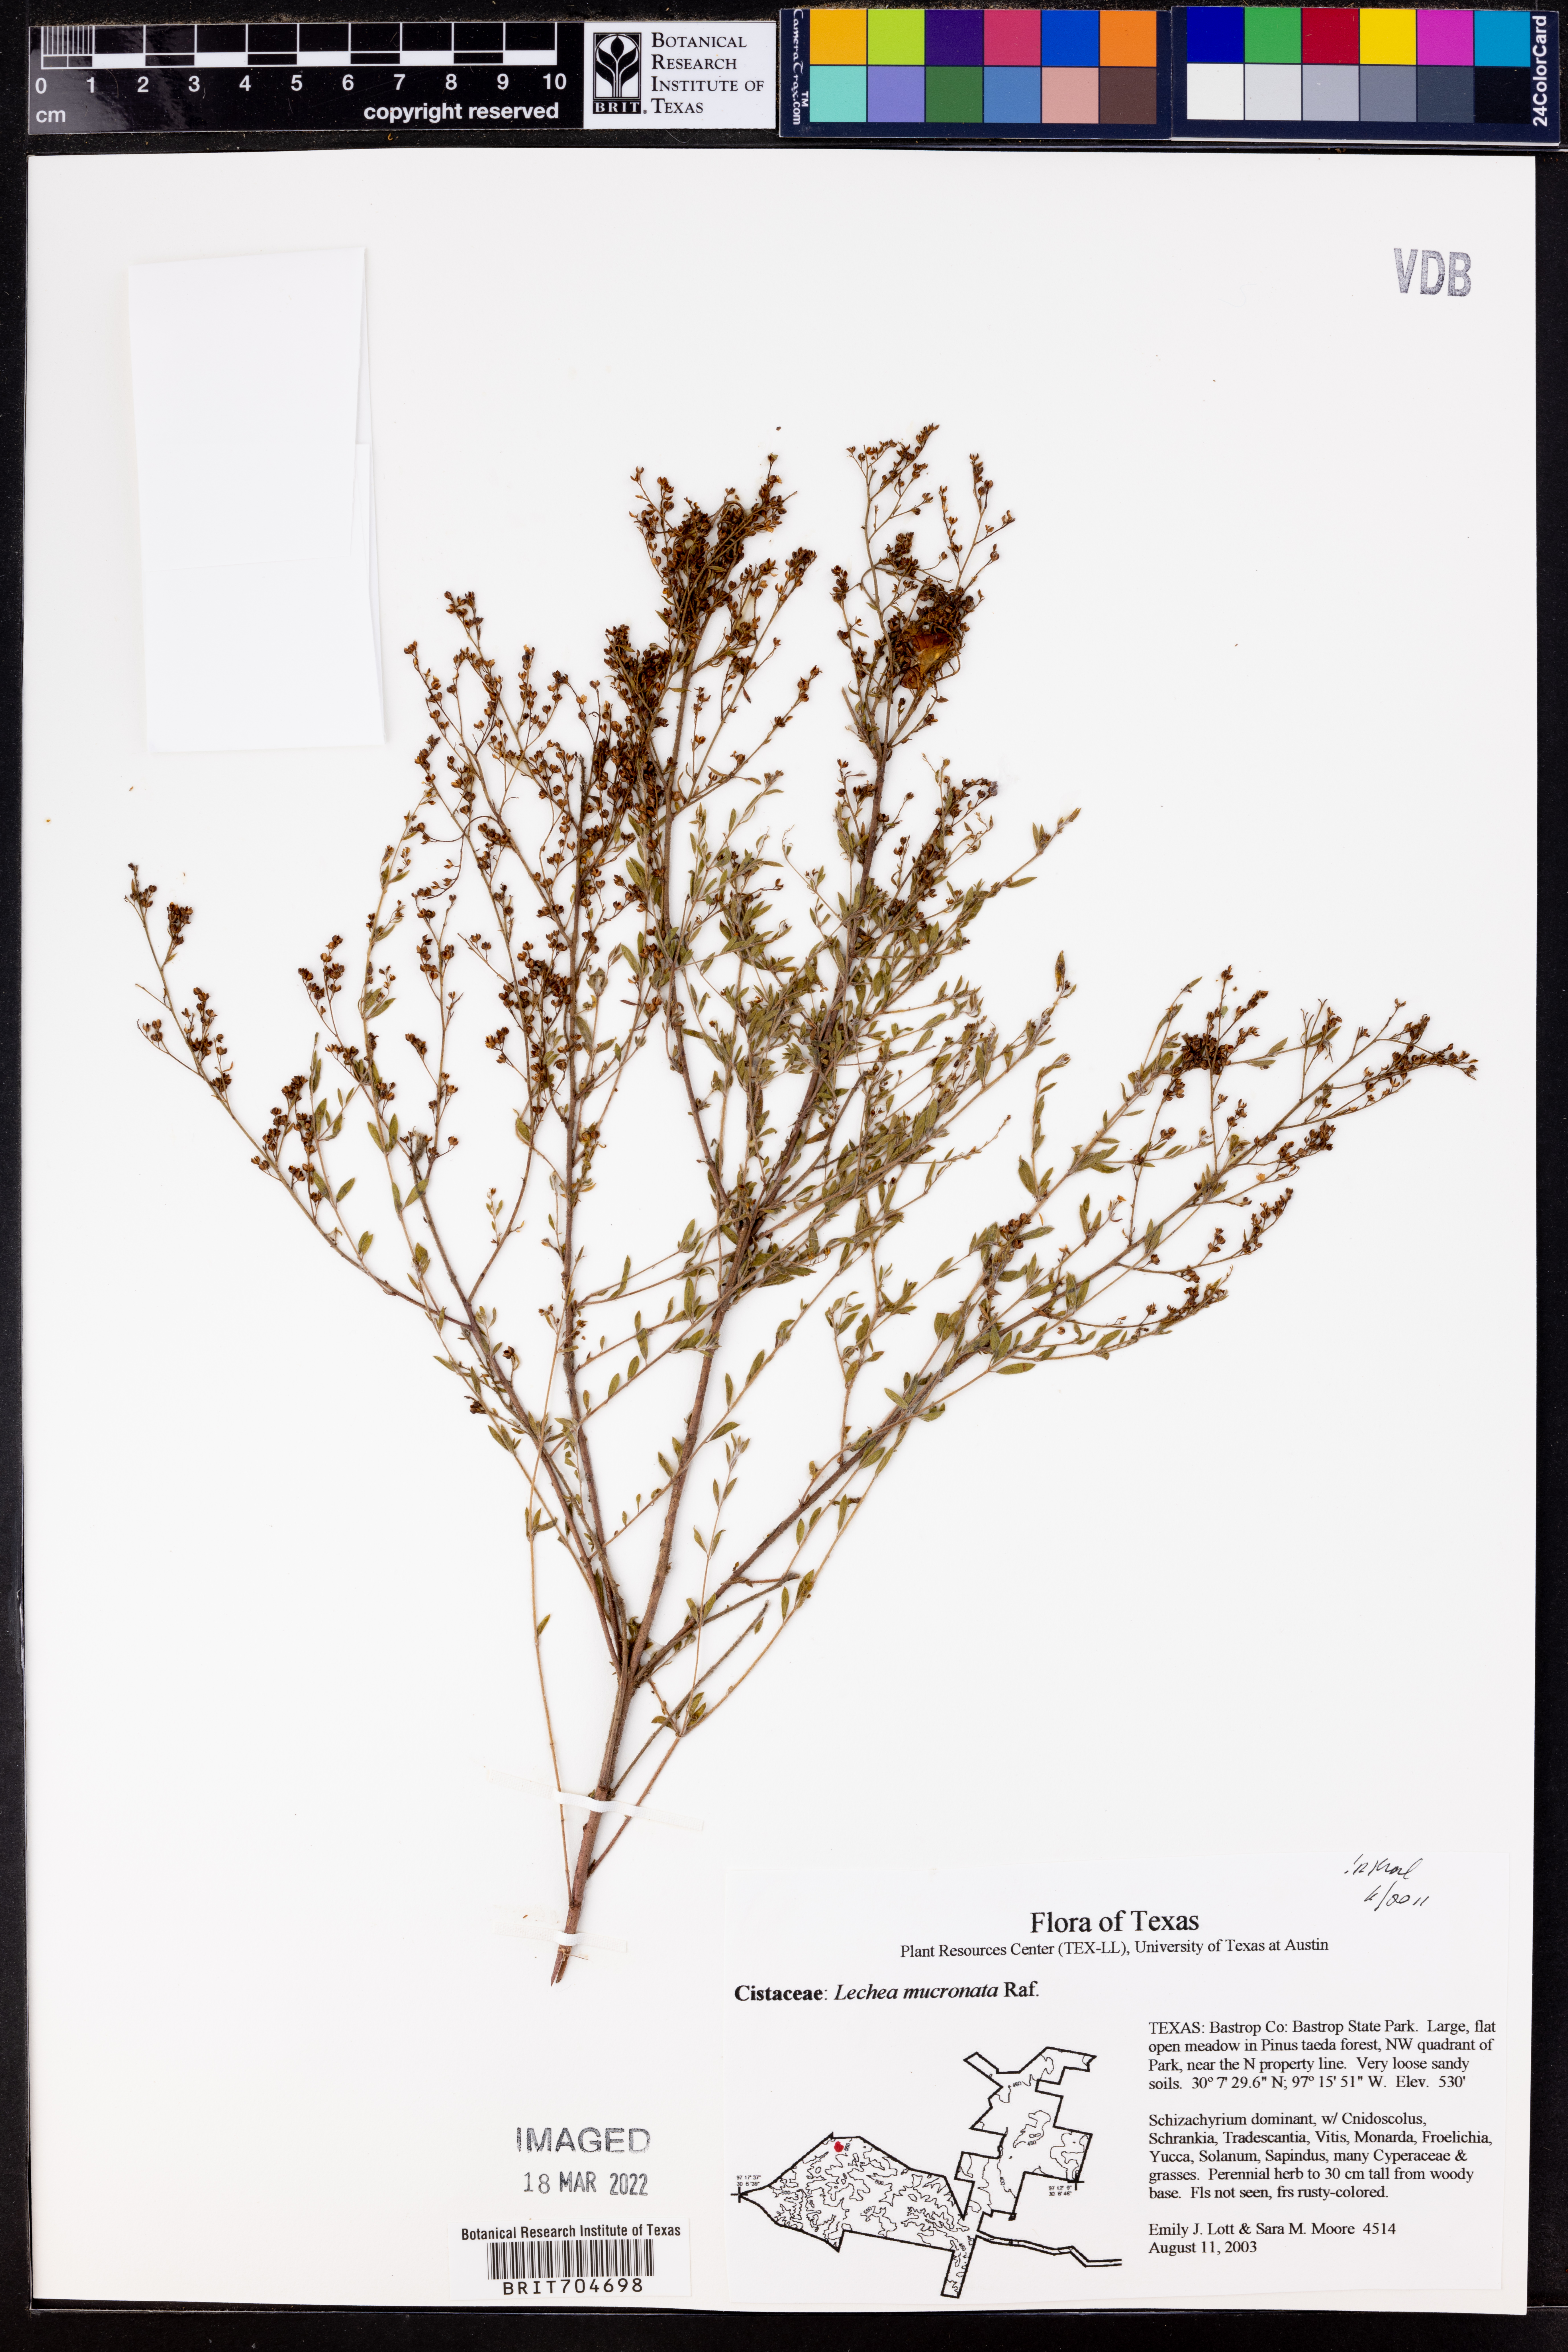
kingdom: Plantae
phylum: Tracheophyta
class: Magnoliopsida
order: Malvales
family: Cistaceae
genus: Lechea
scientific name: Lechea mucronata
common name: Hairy pinweed
